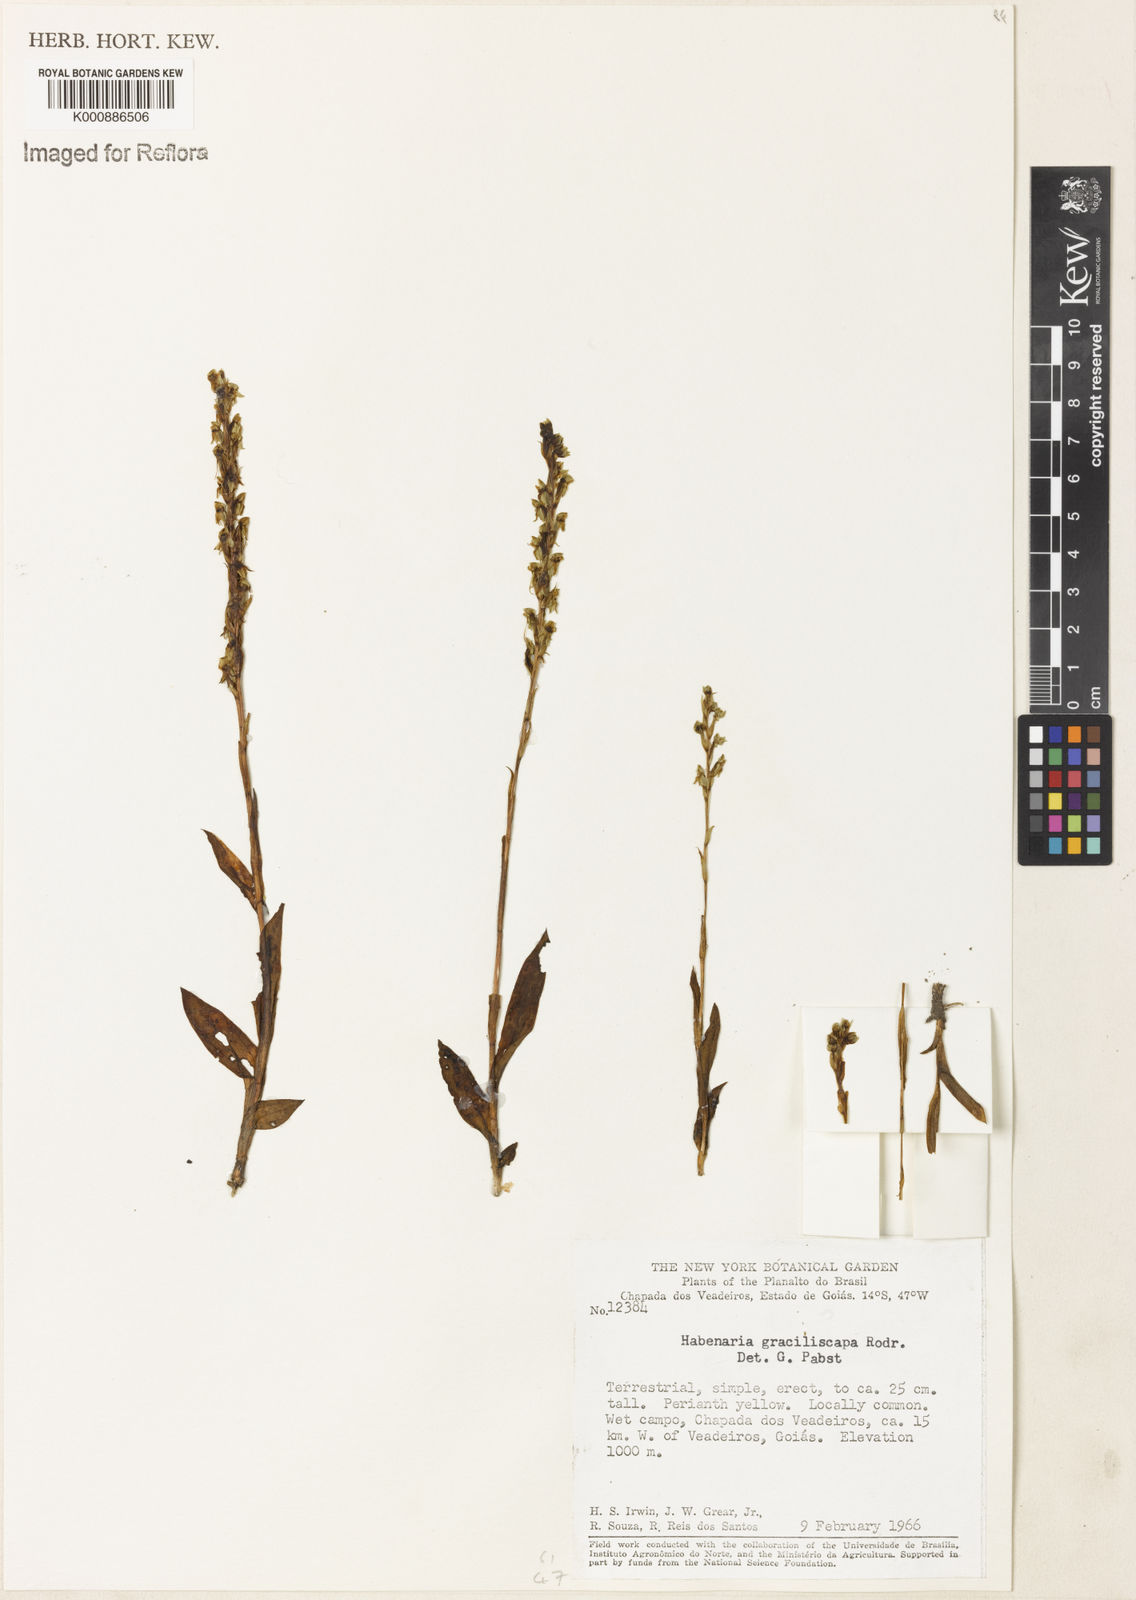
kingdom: Plantae
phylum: Tracheophyta
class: Liliopsida
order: Asparagales
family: Orchidaceae
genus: Habenaria
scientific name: Habenaria imbricata
